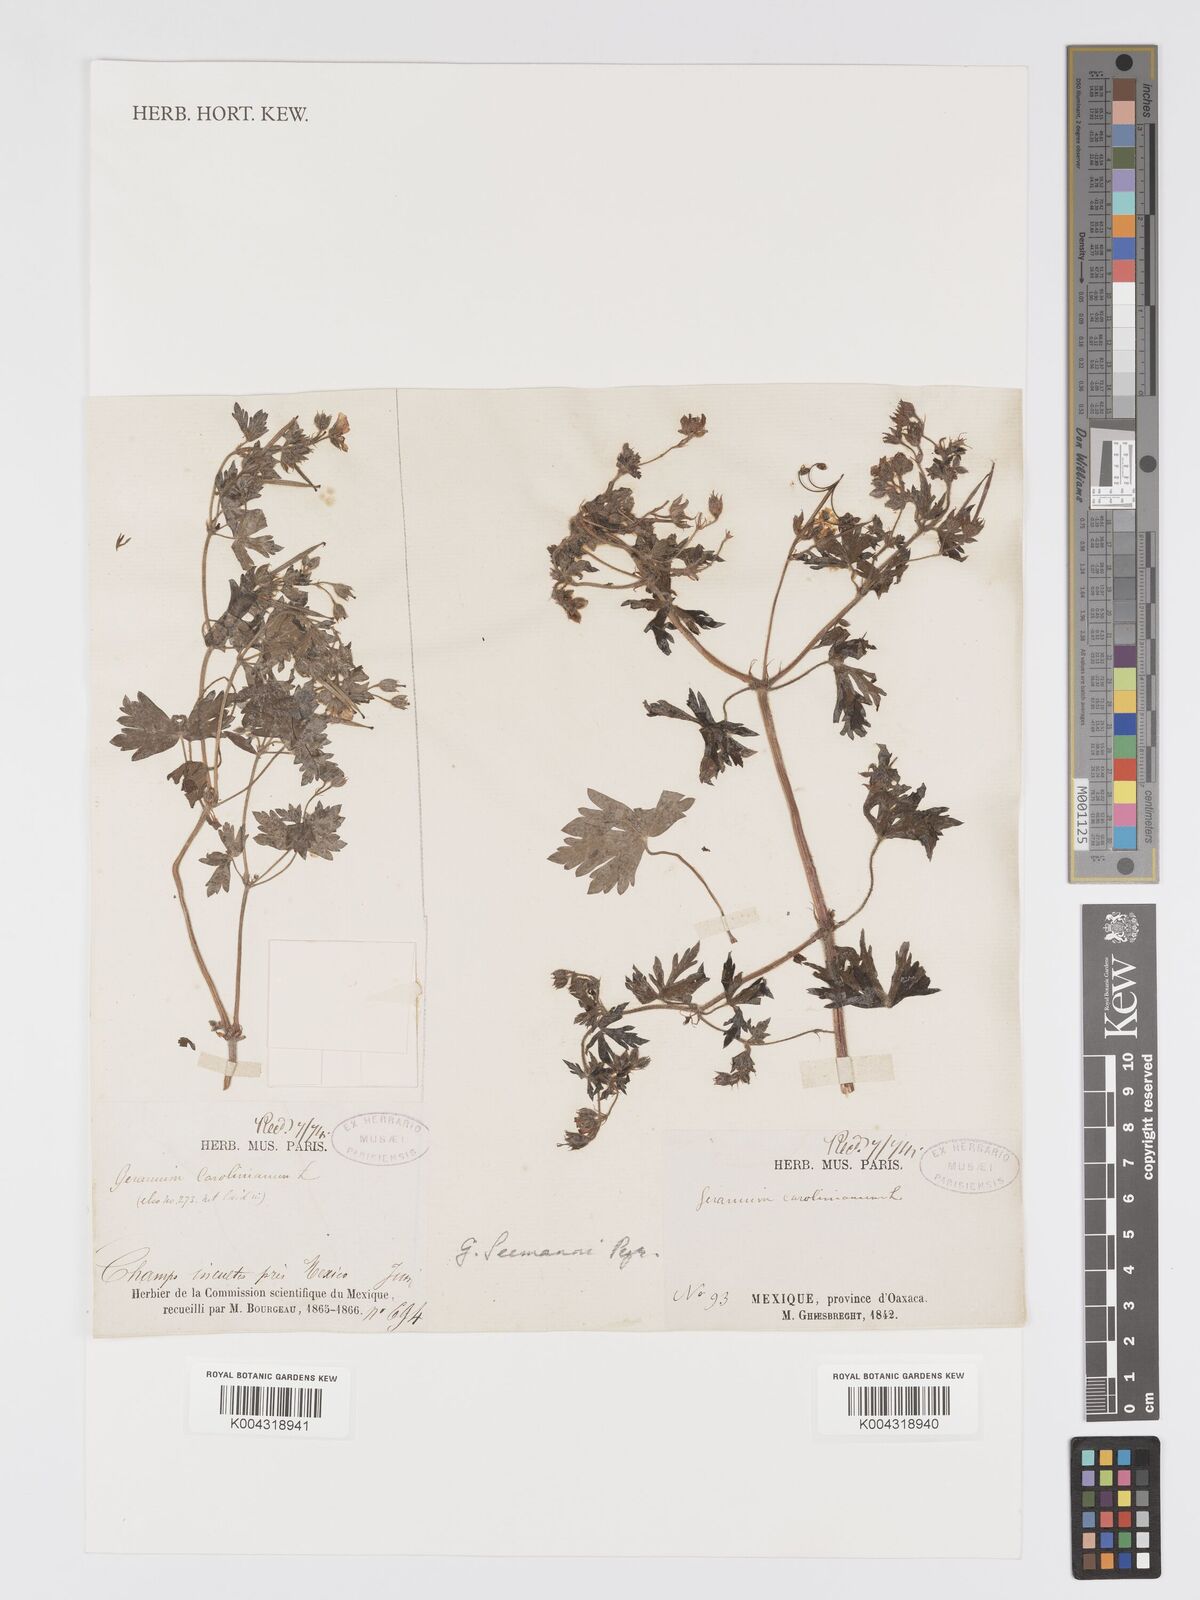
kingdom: Plantae
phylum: Tracheophyta
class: Magnoliopsida
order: Geraniales
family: Geraniaceae
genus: Geranium
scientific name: Geranium carolinianum
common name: Carolina crane's-bill
